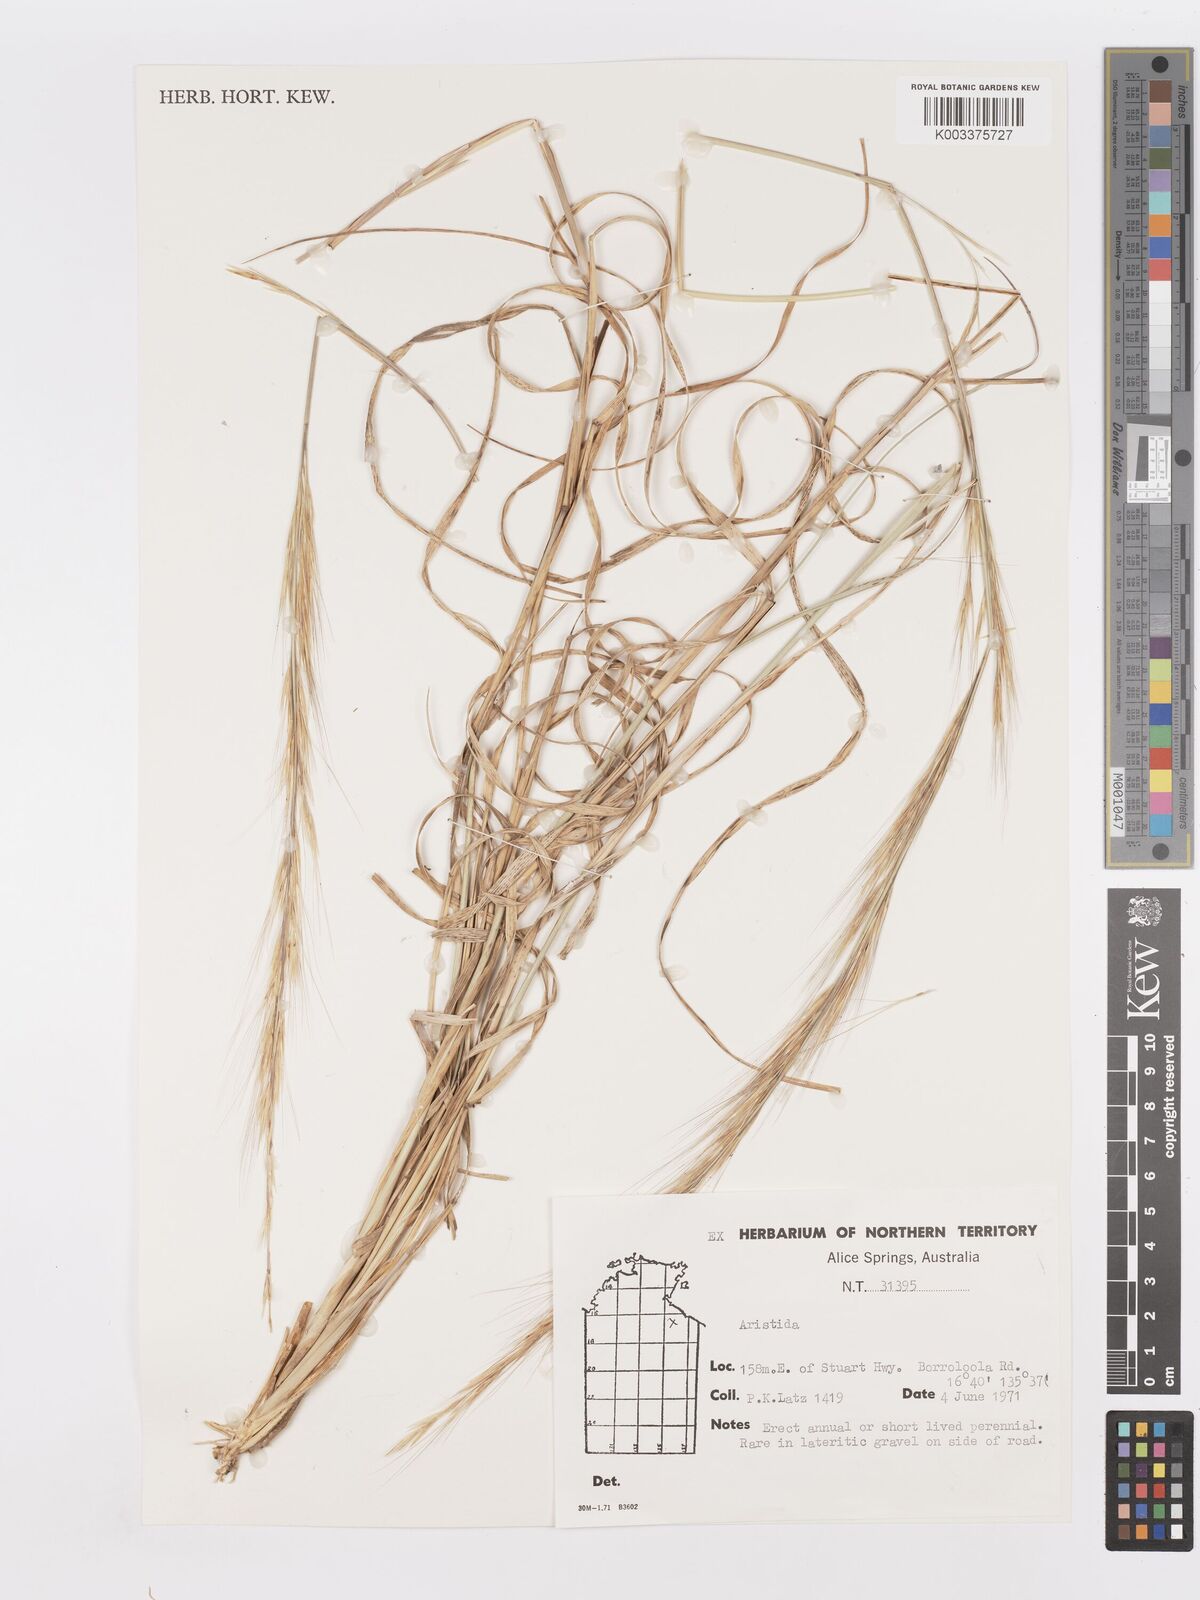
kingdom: Plantae
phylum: Tracheophyta
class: Liliopsida
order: Poales
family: Poaceae
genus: Aristida
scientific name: Aristida
